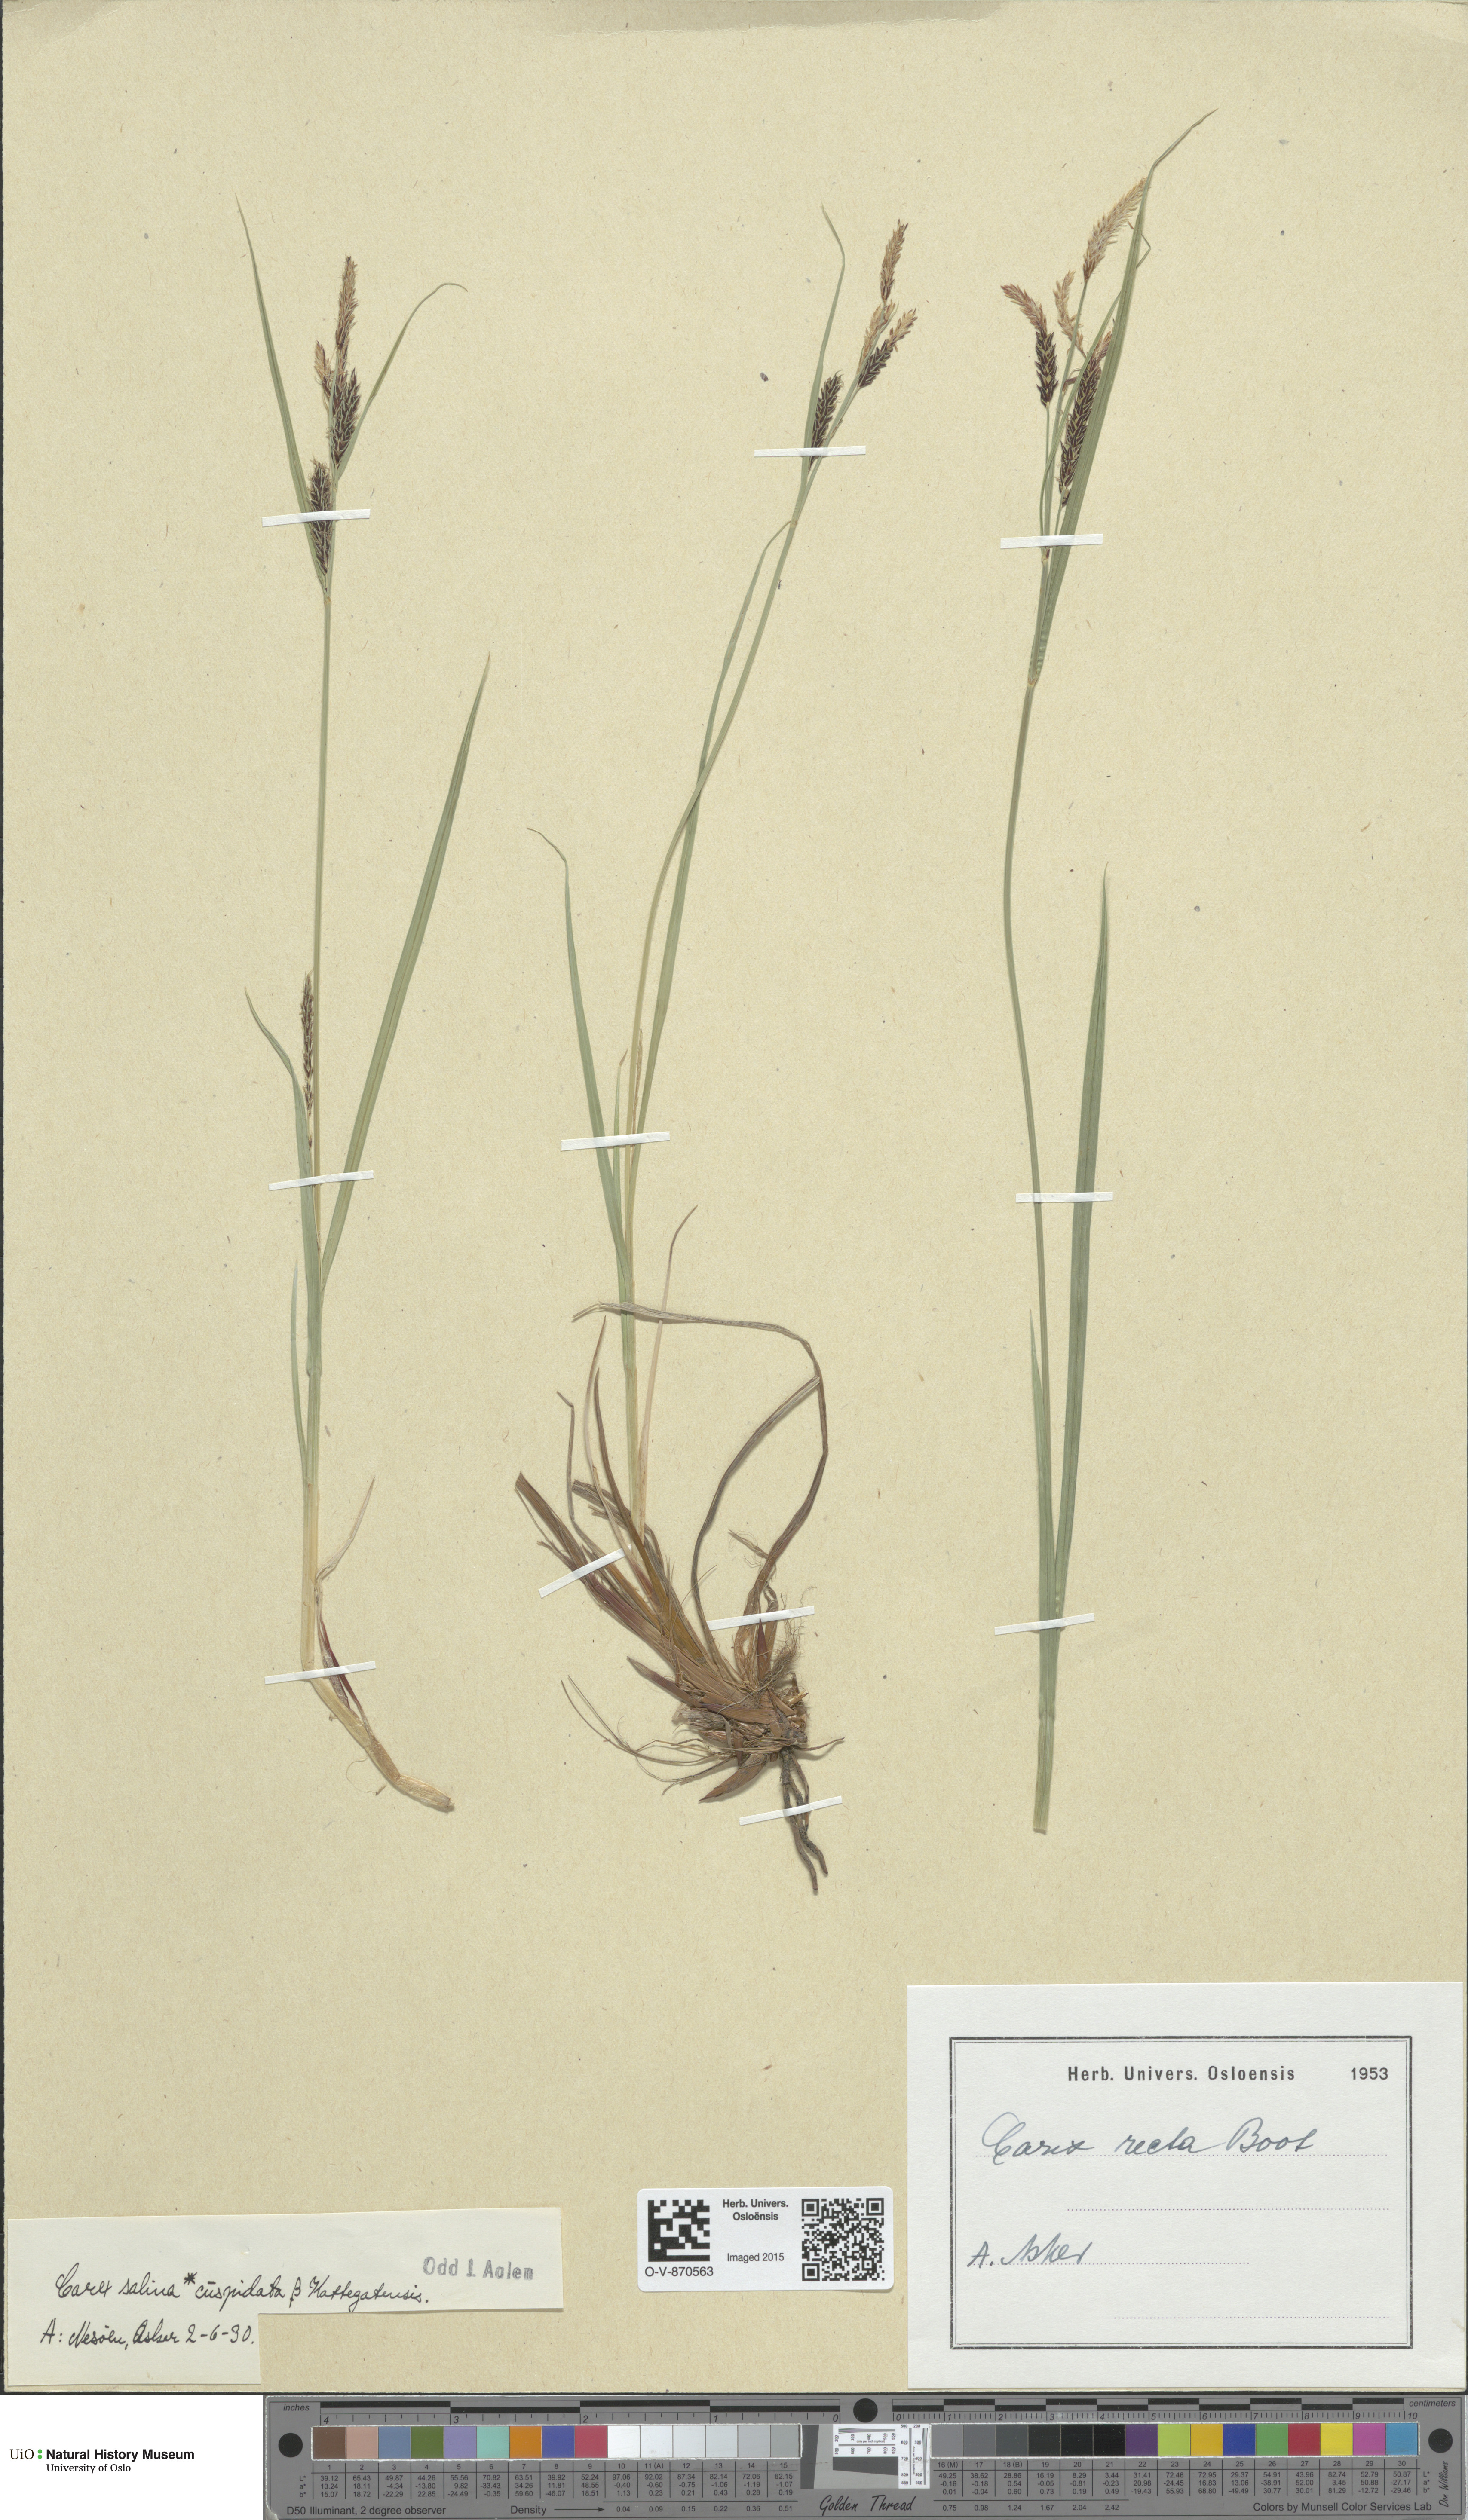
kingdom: Plantae
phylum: Tracheophyta
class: Liliopsida
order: Poales
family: Cyperaceae
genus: Carex
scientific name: Carex vacillans
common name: Sedge
